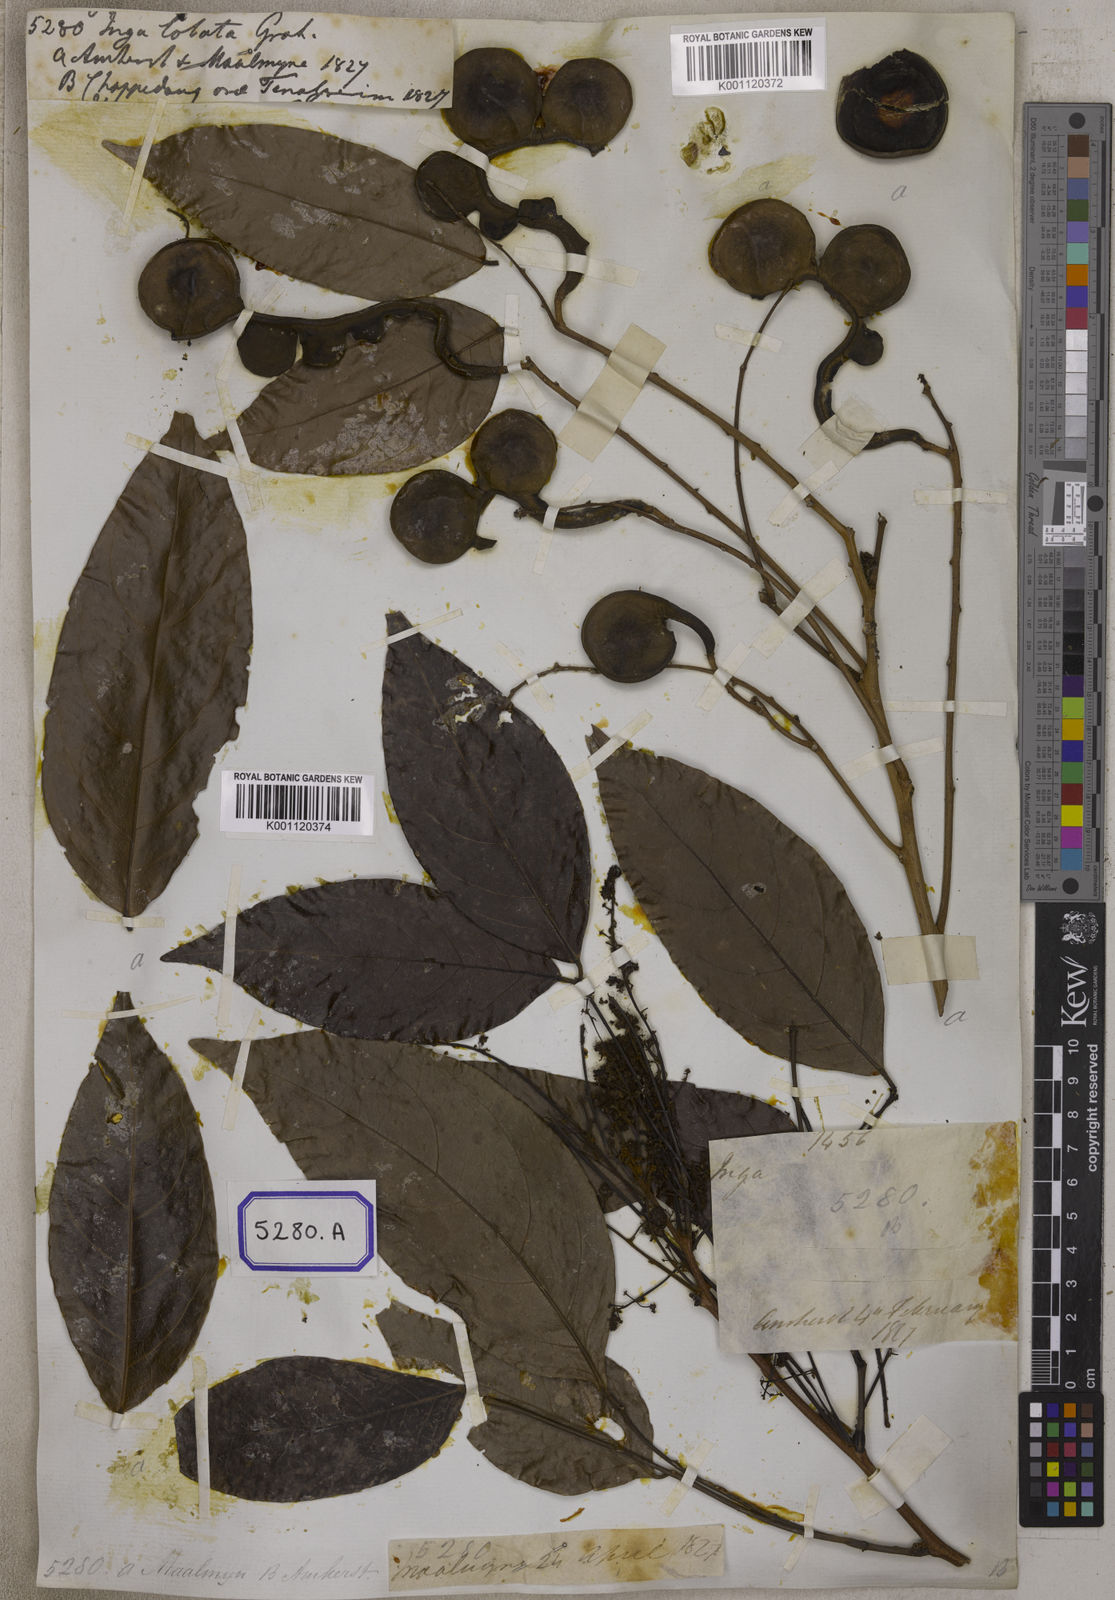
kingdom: Plantae
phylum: Tracheophyta
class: Magnoliopsida
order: Fabales
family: Fabaceae
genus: Archidendron
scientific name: Archidendron jiringa
